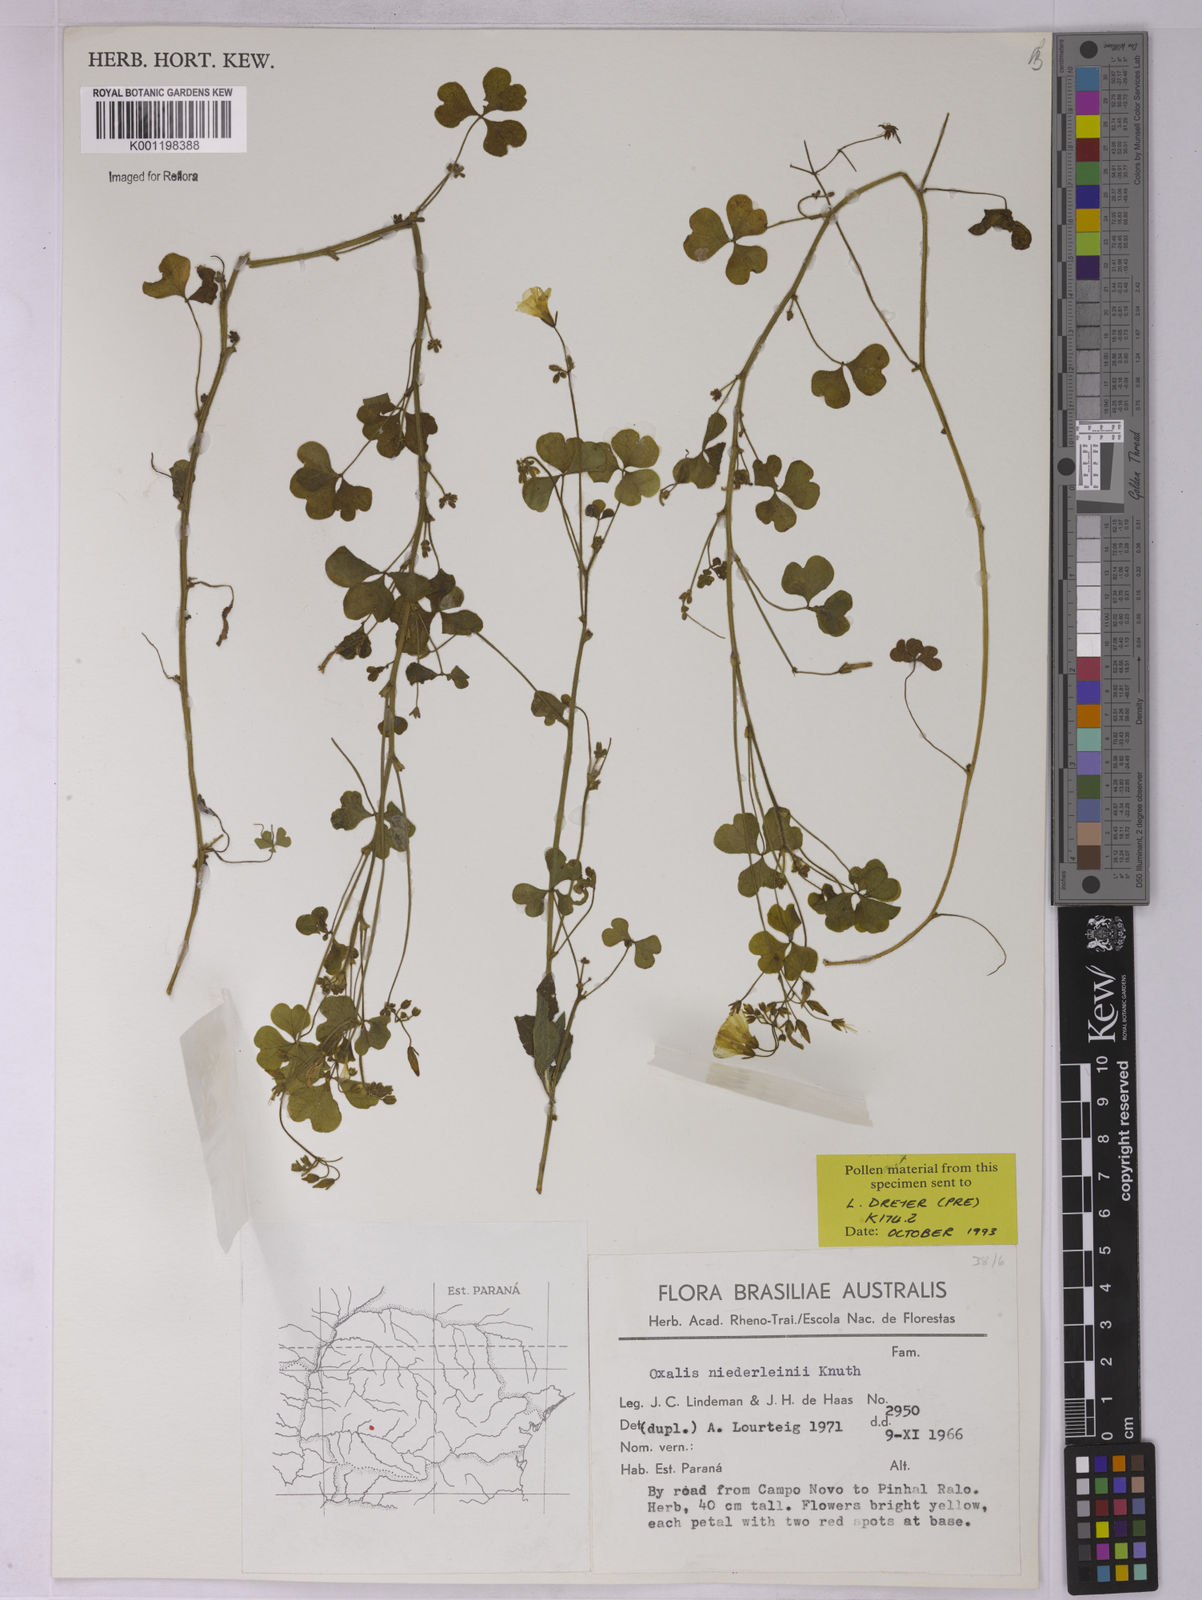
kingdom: Plantae
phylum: Tracheophyta
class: Magnoliopsida
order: Oxalidales
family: Oxalidaceae
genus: Oxalis
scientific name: Oxalis niederleinii
